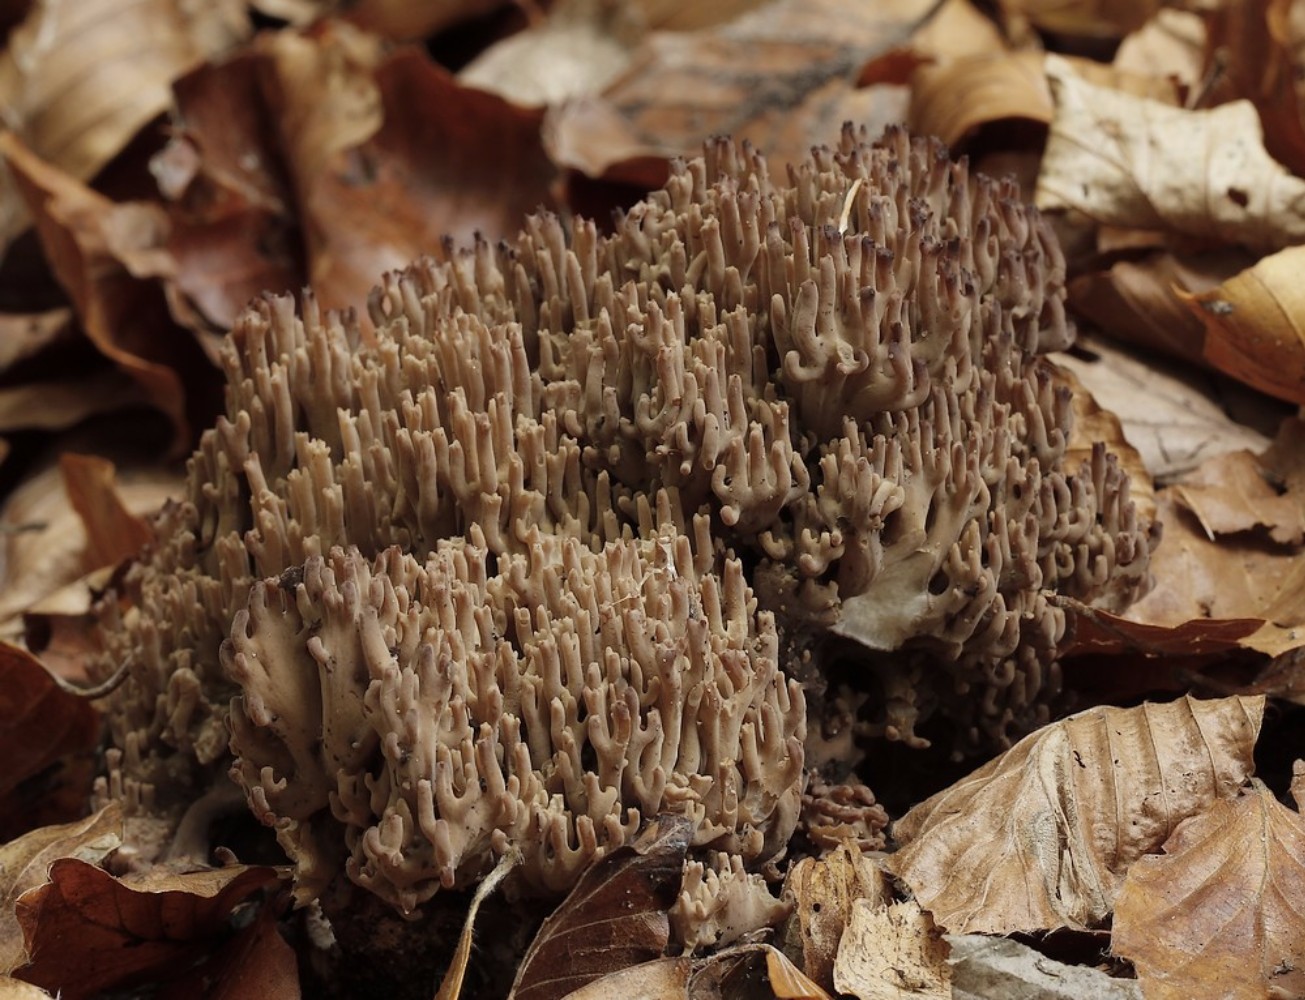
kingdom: Fungi
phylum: Basidiomycota
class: Agaricomycetes
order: Gomphales
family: Gomphaceae
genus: Ramaria
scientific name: Ramaria fumigata
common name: violet koralsvamp
